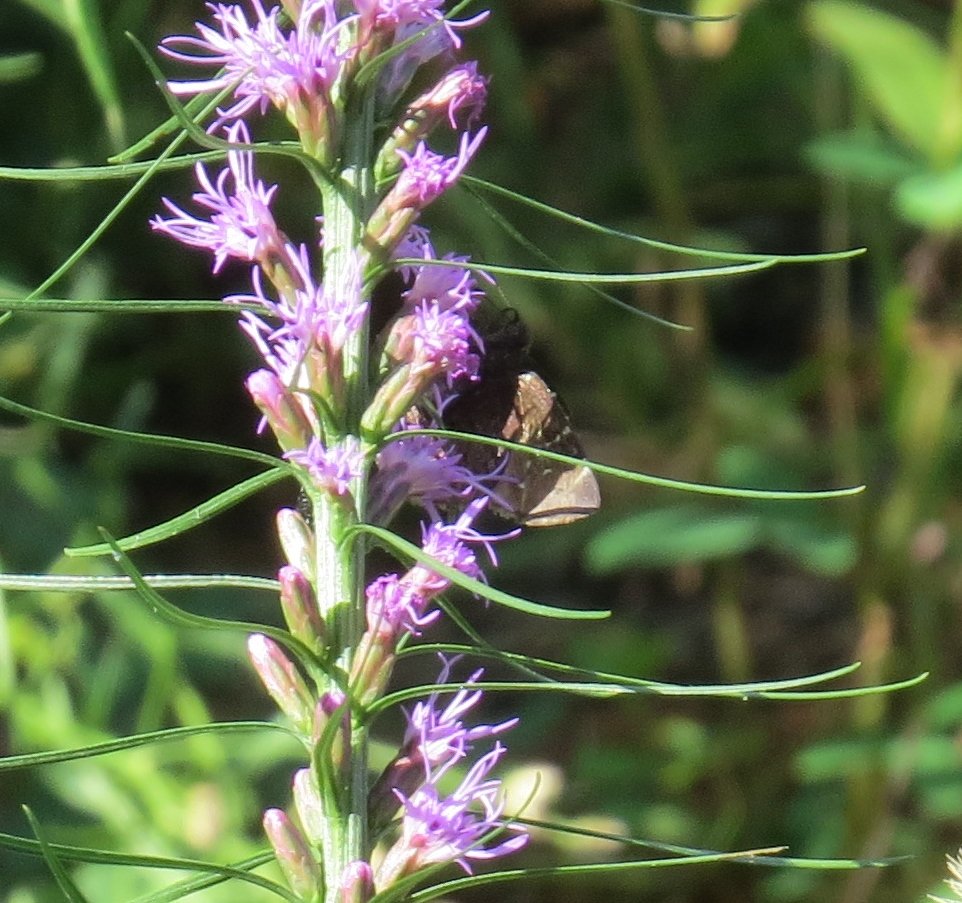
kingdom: Animalia
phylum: Arthropoda
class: Insecta
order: Lepidoptera
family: Hesperiidae
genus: Autochton
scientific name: Autochton
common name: Southern Cloudywing
